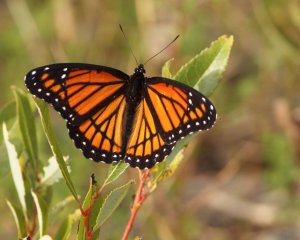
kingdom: Animalia
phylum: Arthropoda
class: Insecta
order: Lepidoptera
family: Nymphalidae
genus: Limenitis
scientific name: Limenitis archippus
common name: Viceroy
